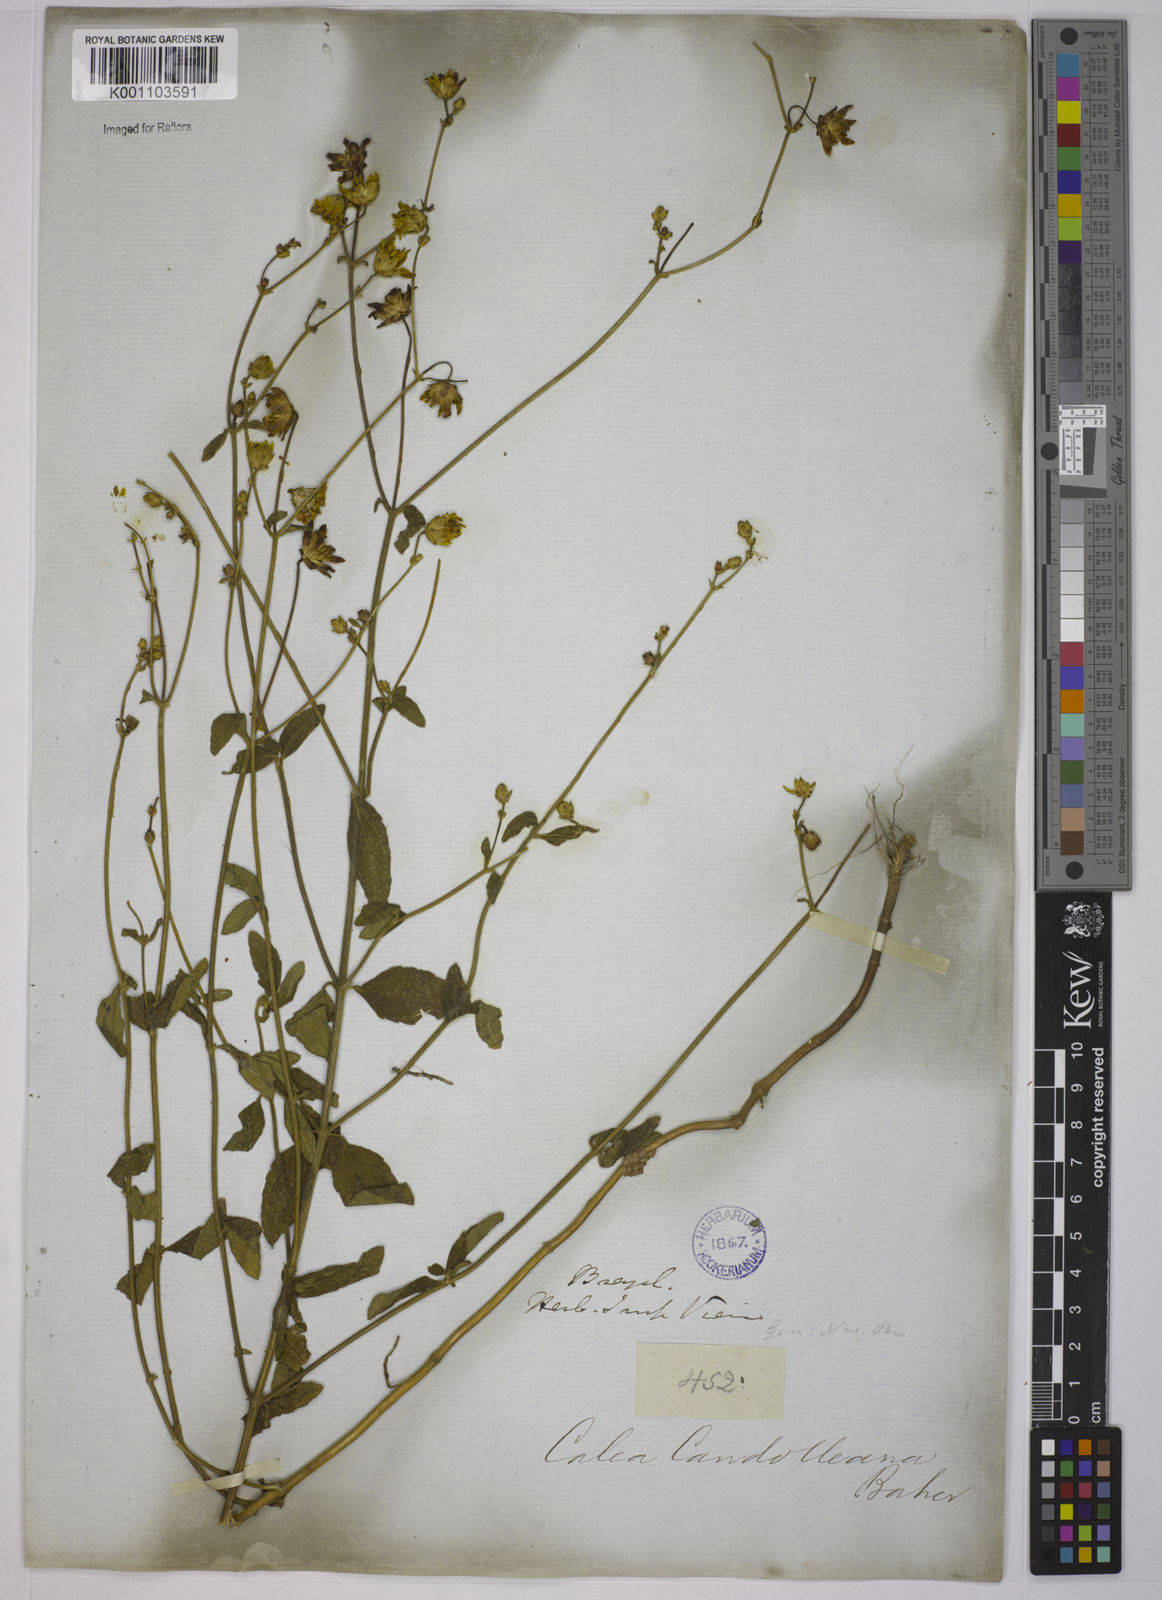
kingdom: Plantae
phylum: Tracheophyta
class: Magnoliopsida
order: Asterales
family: Asteraceae
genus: Calea
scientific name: Calea candolleana
